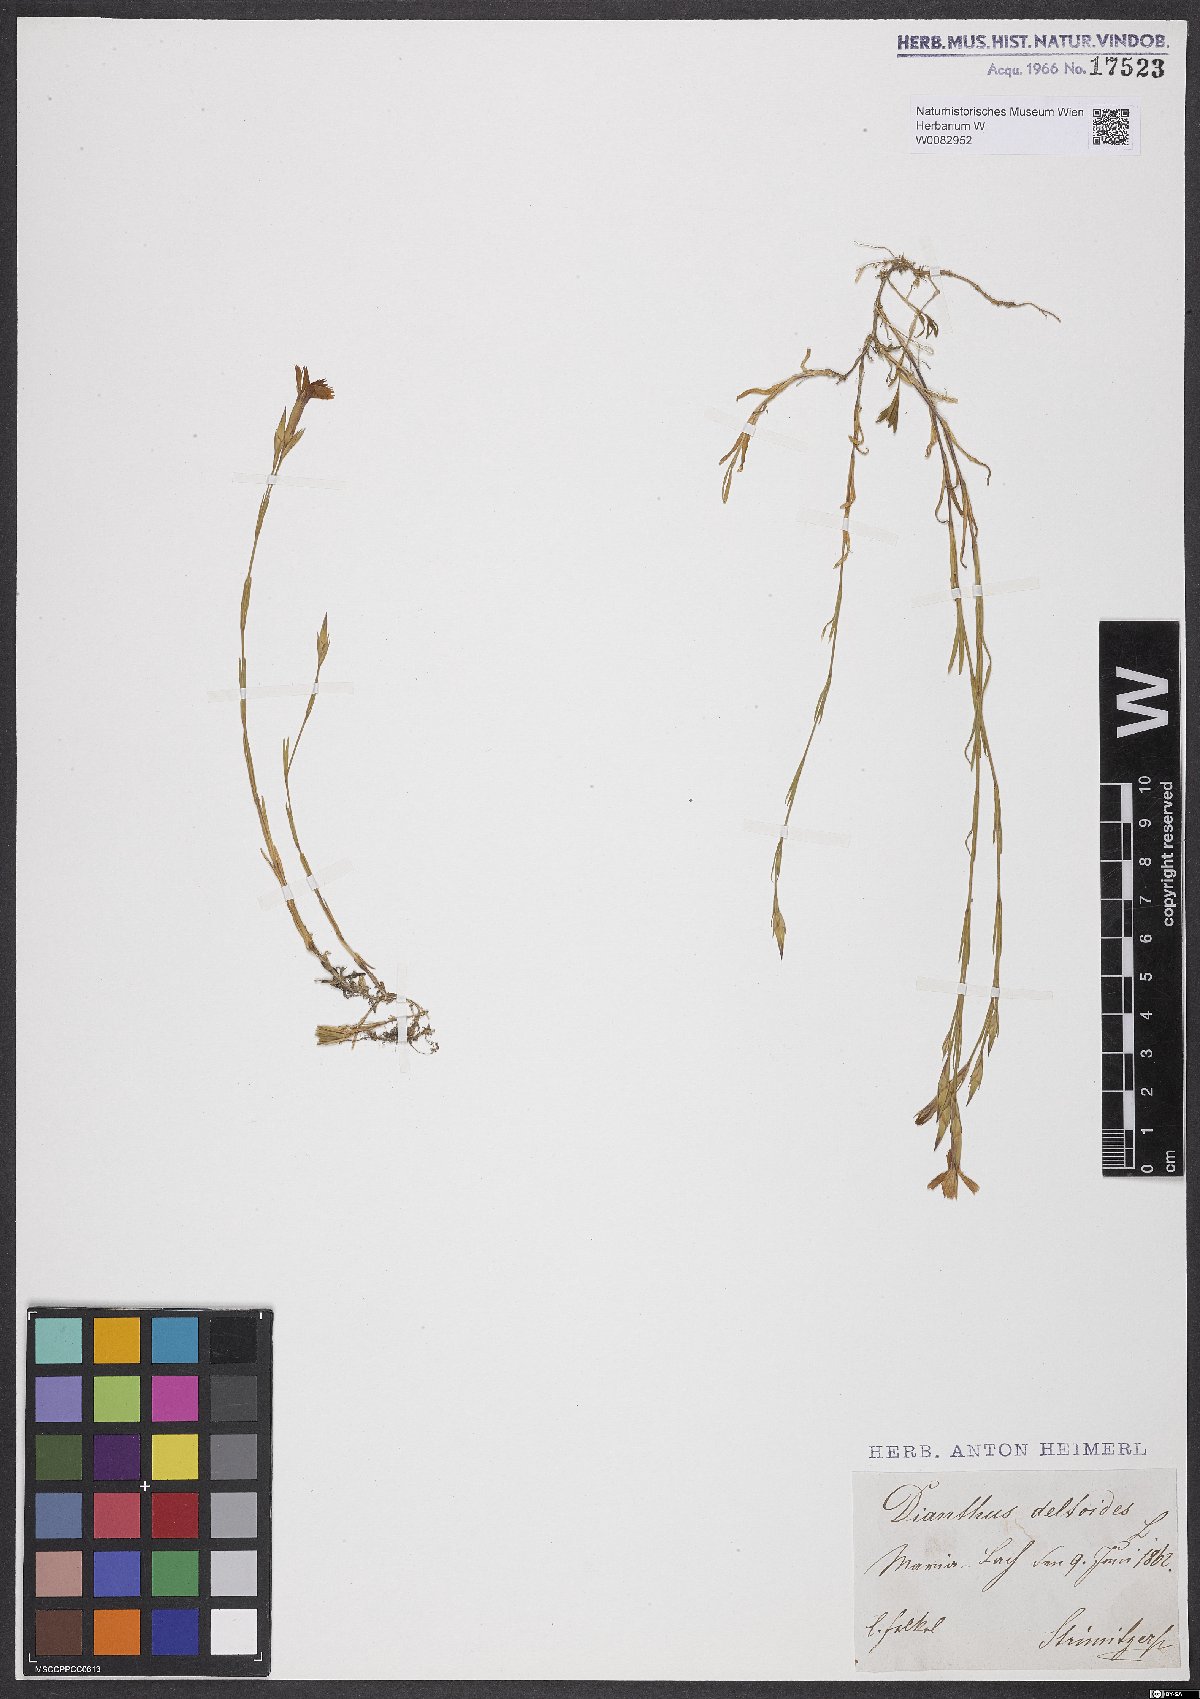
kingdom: Plantae
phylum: Tracheophyta
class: Magnoliopsida
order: Caryophyllales
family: Caryophyllaceae
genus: Dianthus
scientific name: Dianthus deltoides
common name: Maiden pink
